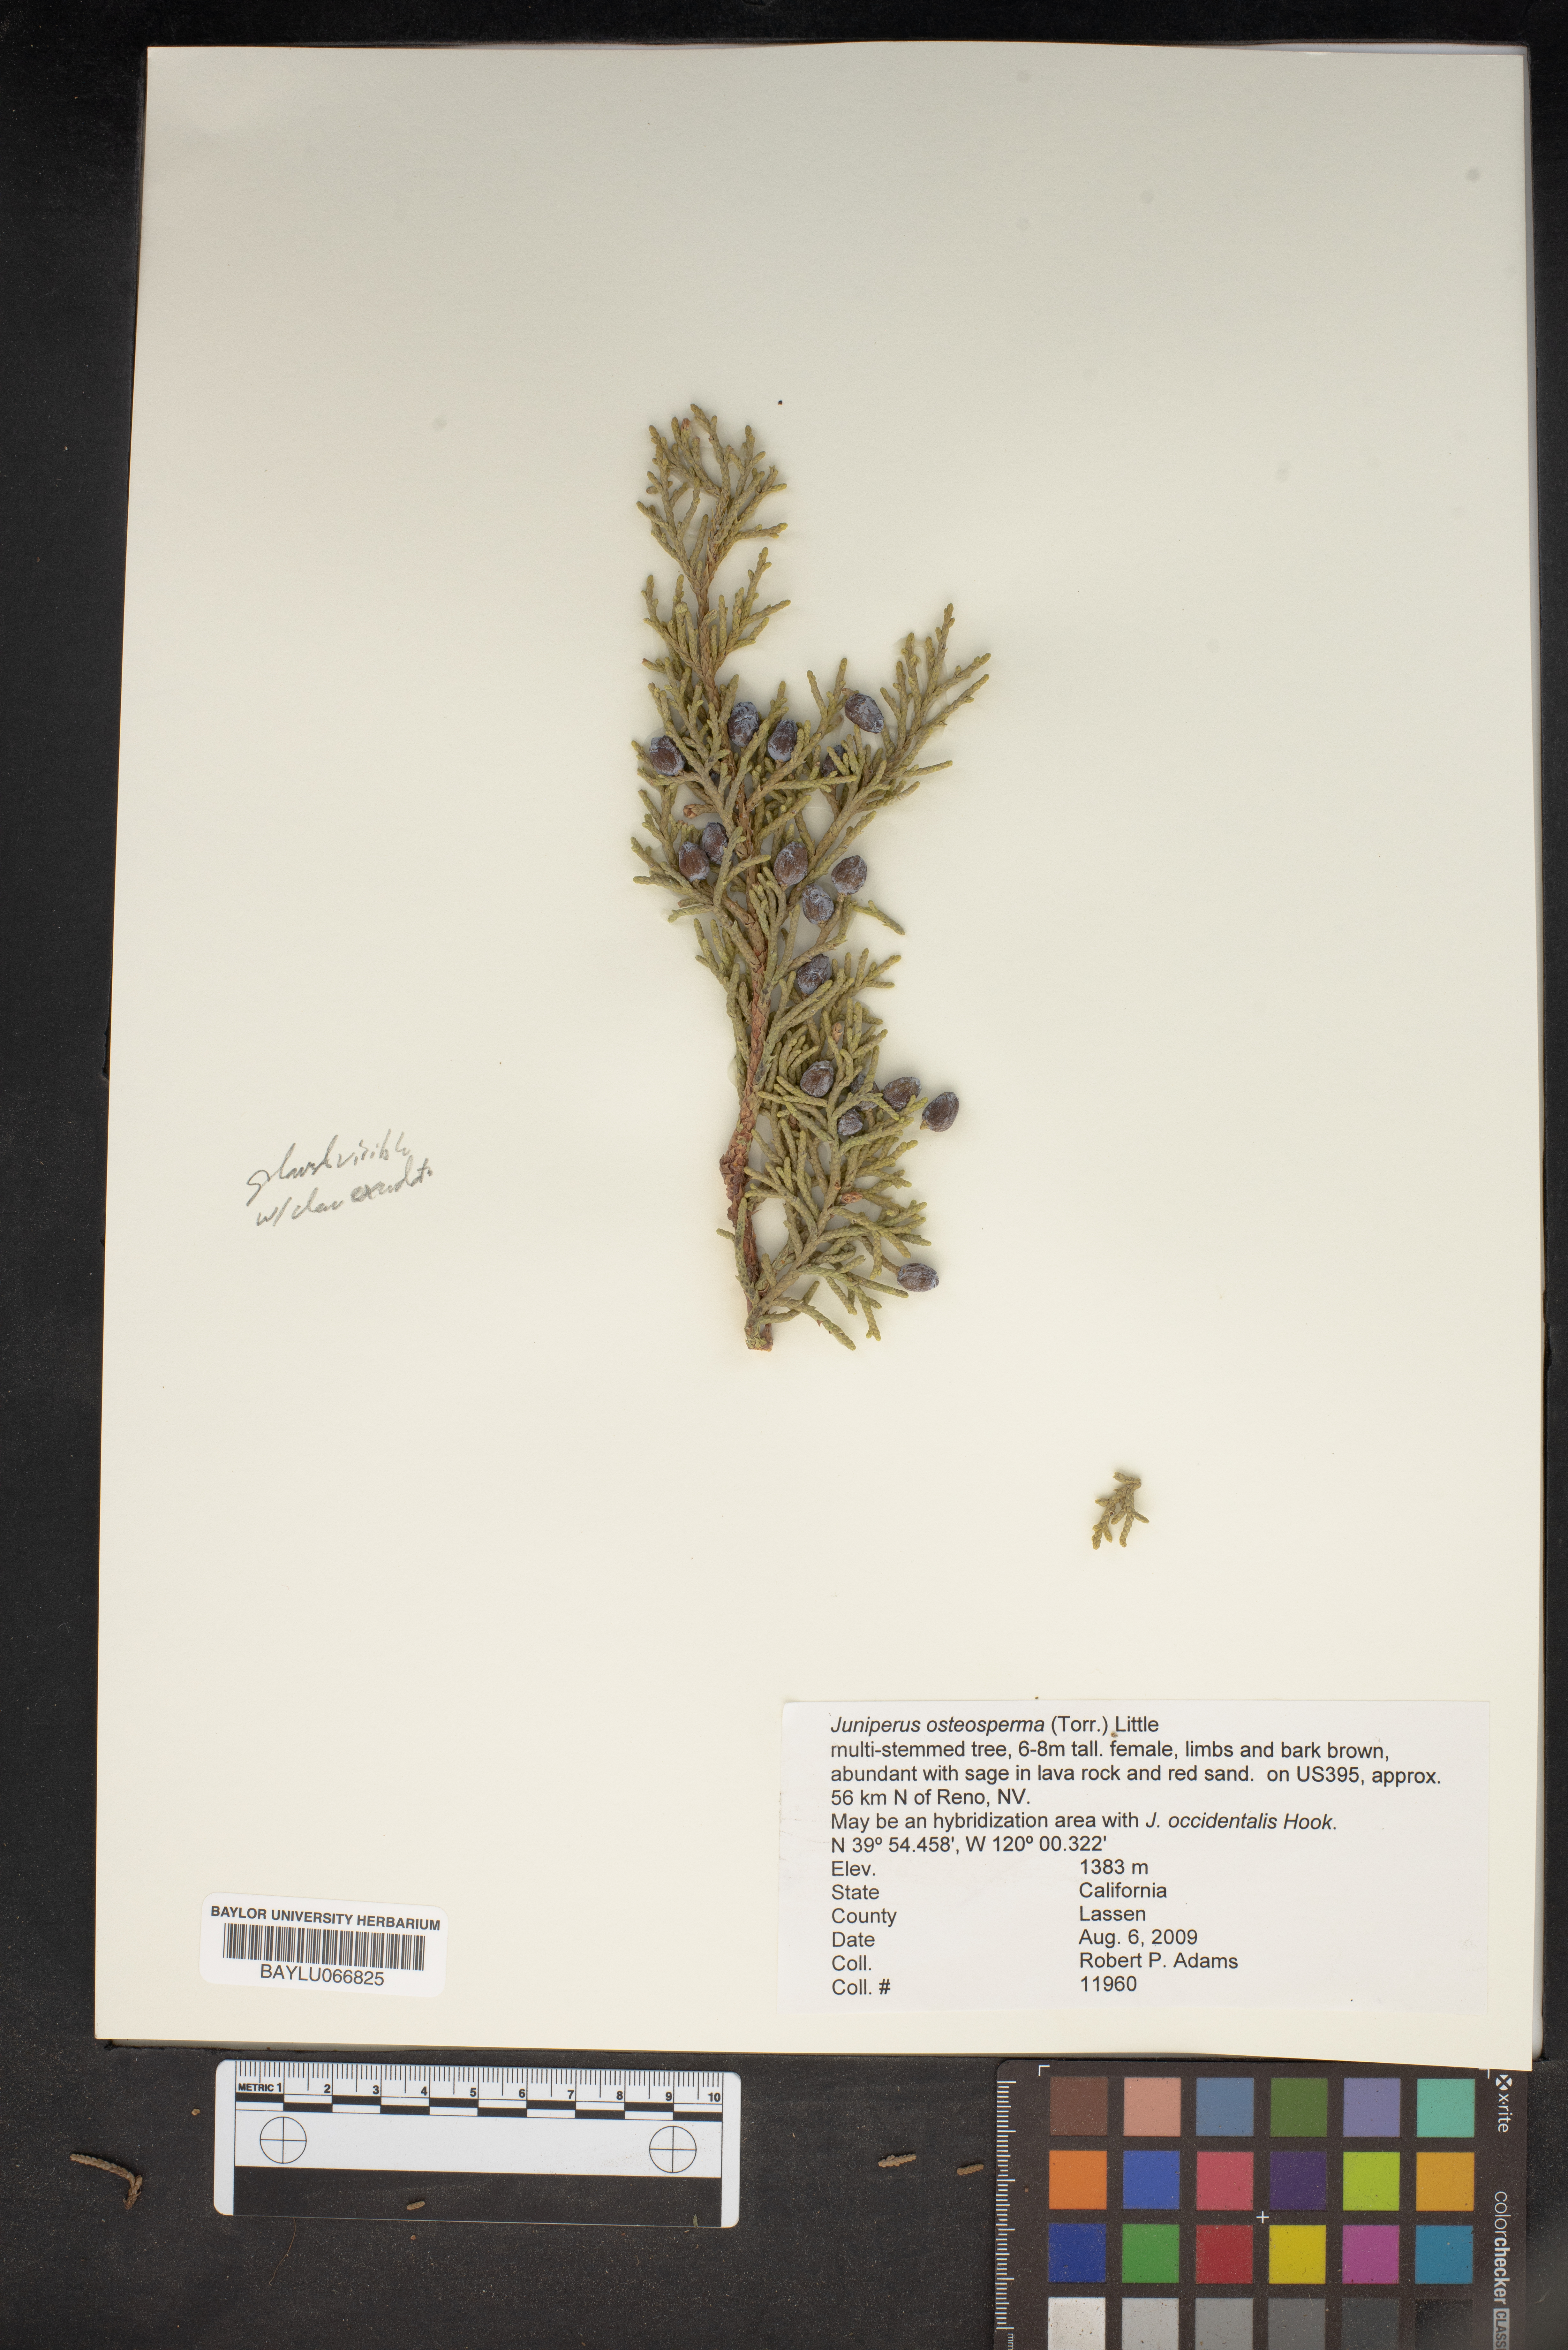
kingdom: Plantae
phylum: Tracheophyta
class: Pinopsida
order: Pinales
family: Cupressaceae
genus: Juniperus
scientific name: Juniperus osteosperma
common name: Utah juniper
